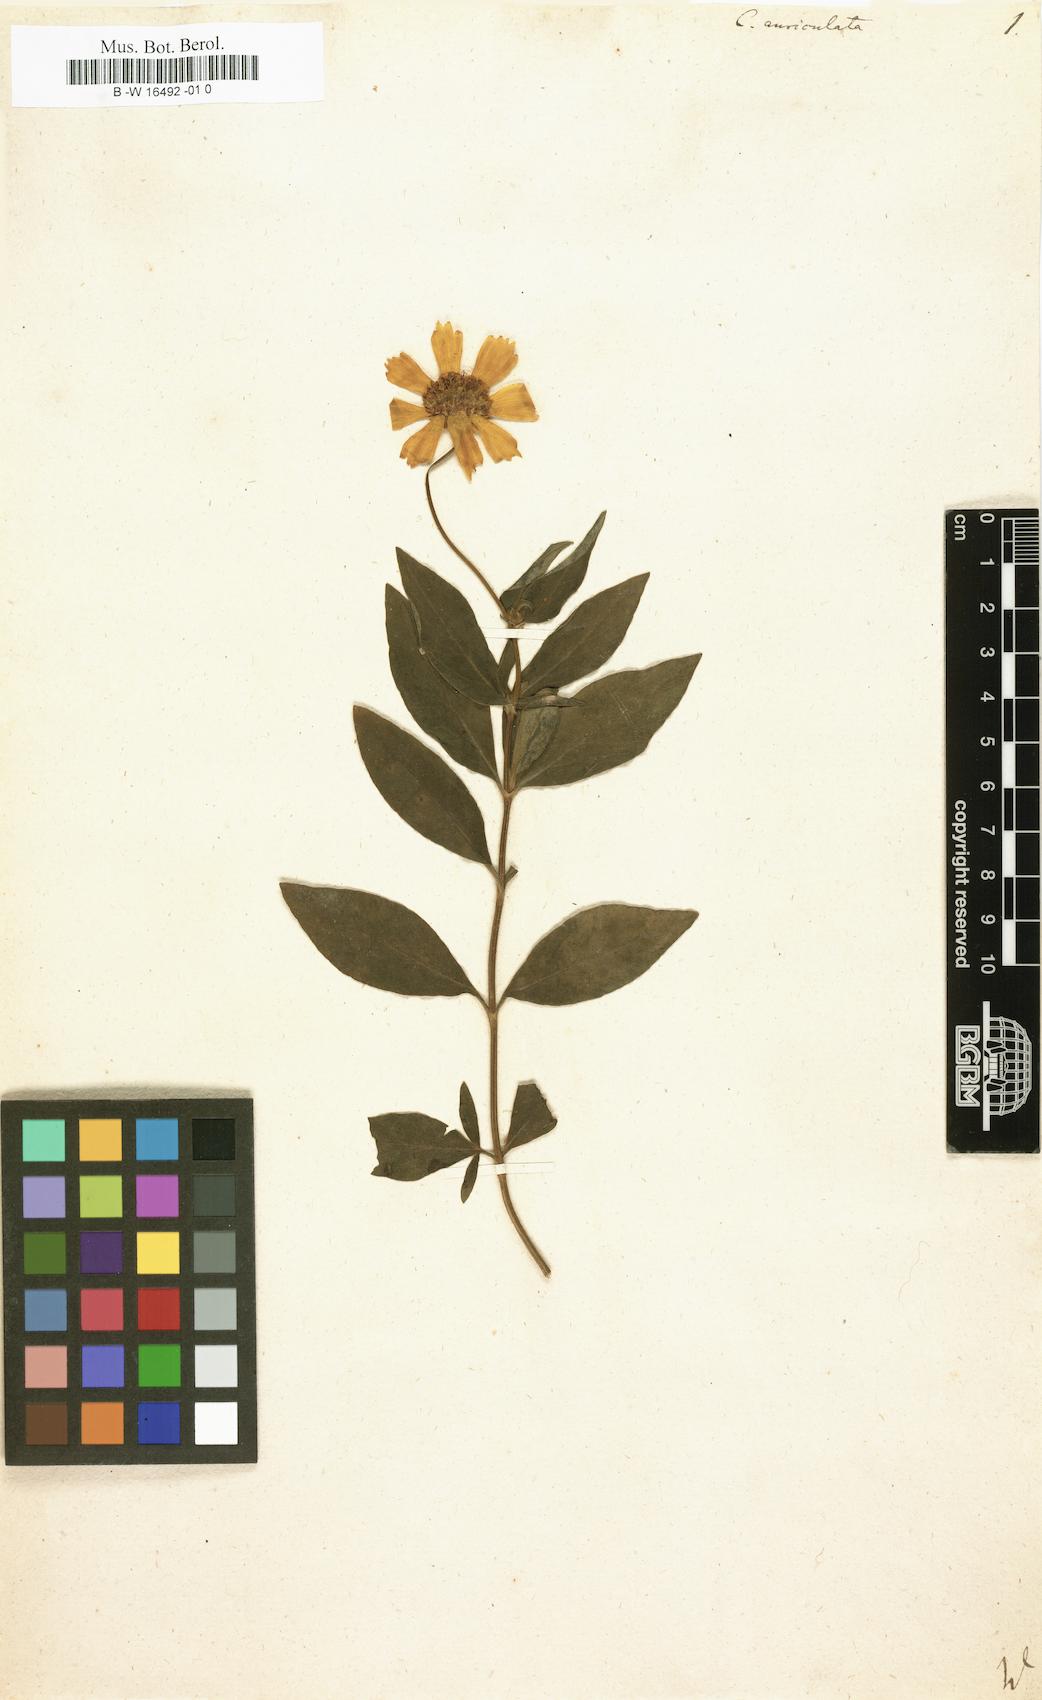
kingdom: Plantae
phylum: Tracheophyta
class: Magnoliopsida
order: Asterales
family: Asteraceae
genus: Coreopsis
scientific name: Coreopsis auriculata
